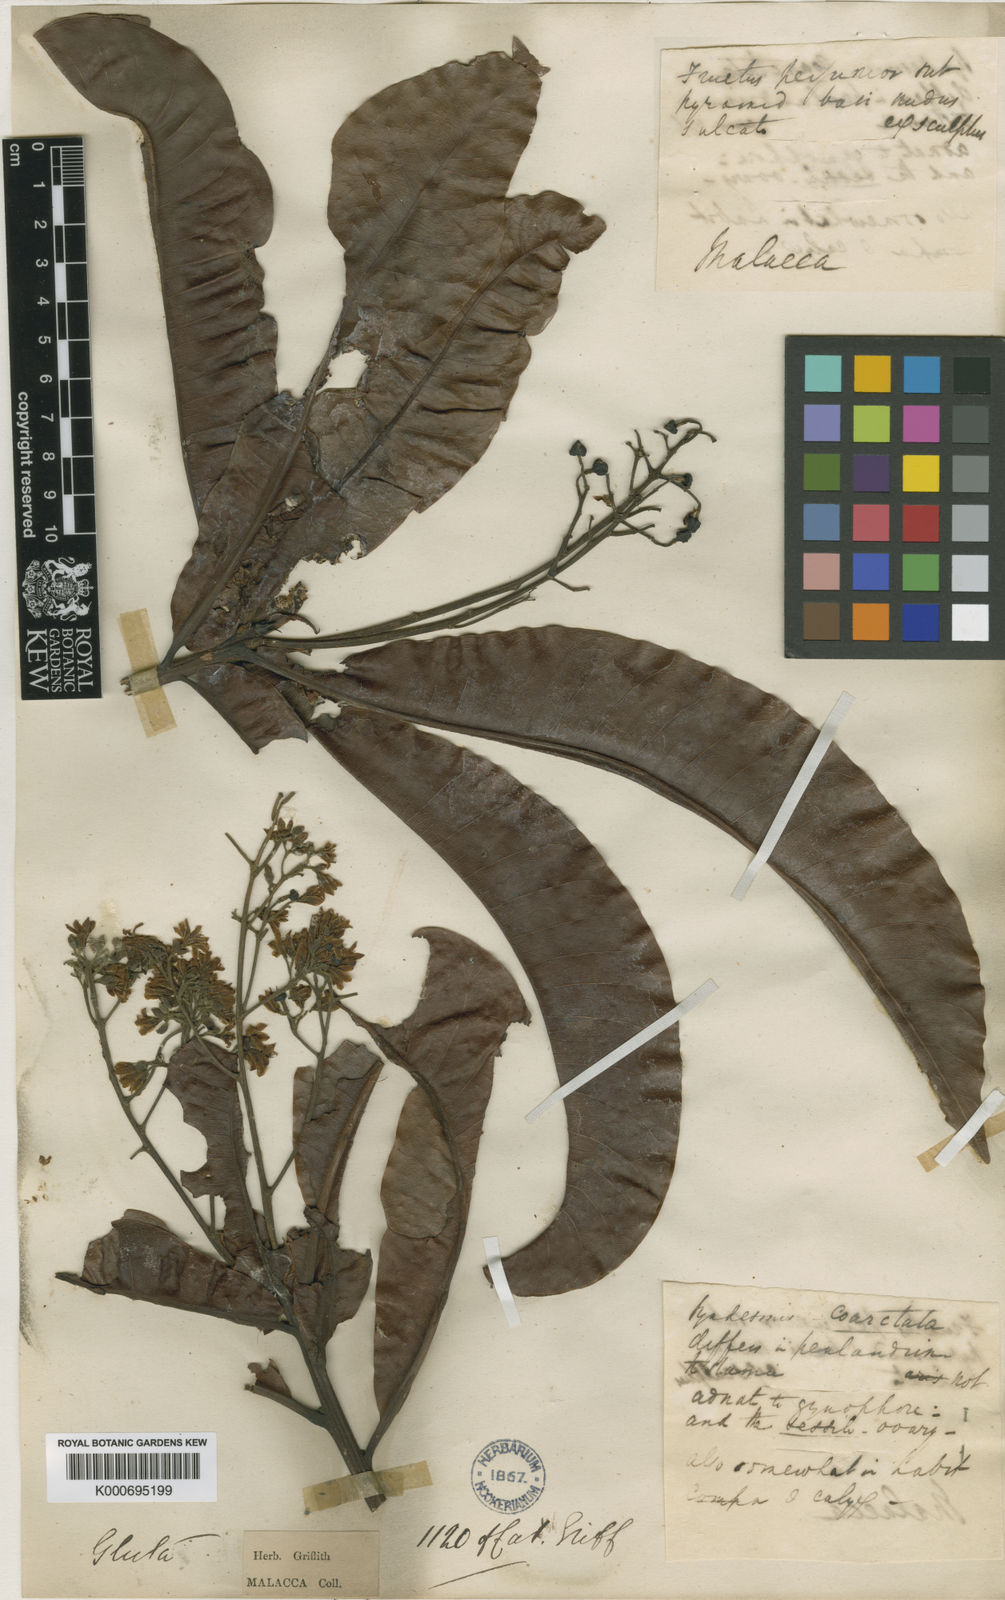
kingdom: Plantae
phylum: Tracheophyta
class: Magnoliopsida
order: Sapindales
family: Anacardiaceae
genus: Gluta
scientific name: Gluta velutina
